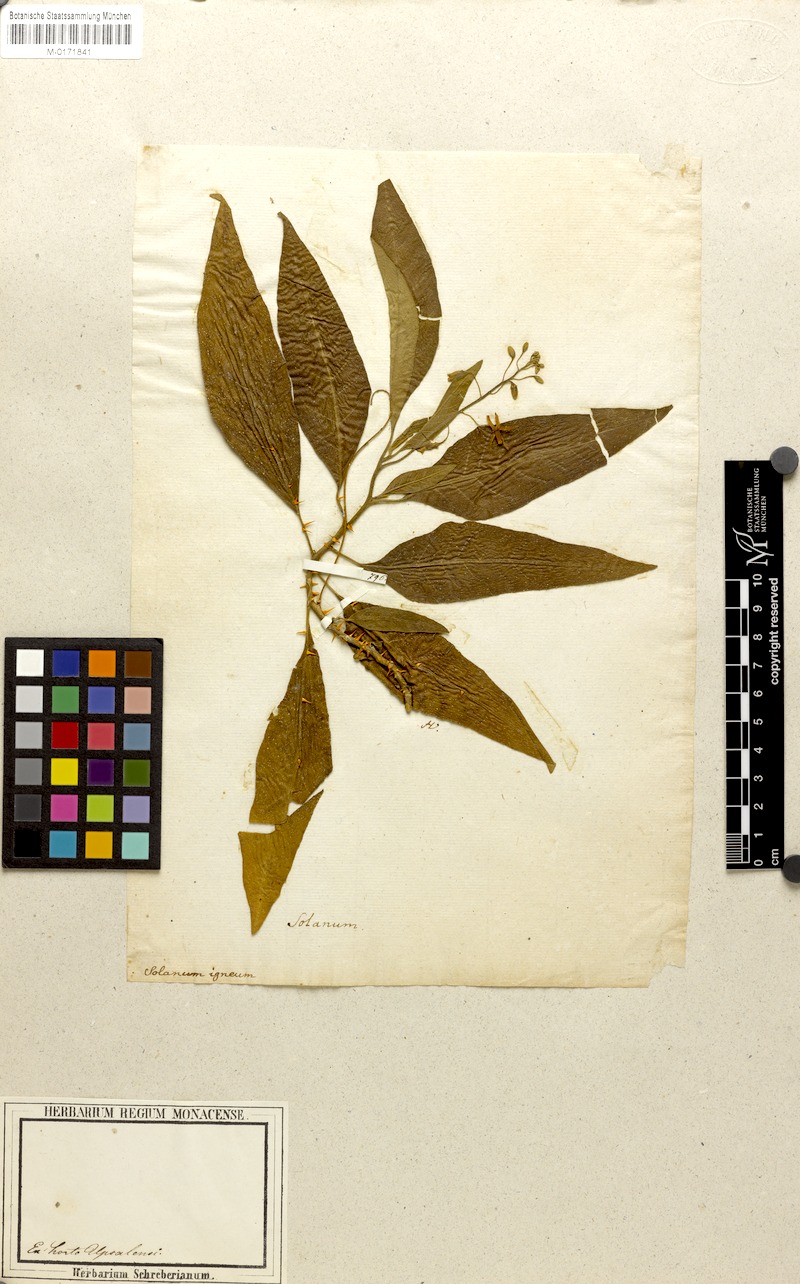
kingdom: Plantae
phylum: Tracheophyta
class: Magnoliopsida
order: Solanales
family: Solanaceae
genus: Solanum
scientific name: Solanum bahamense
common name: Canker-berry
